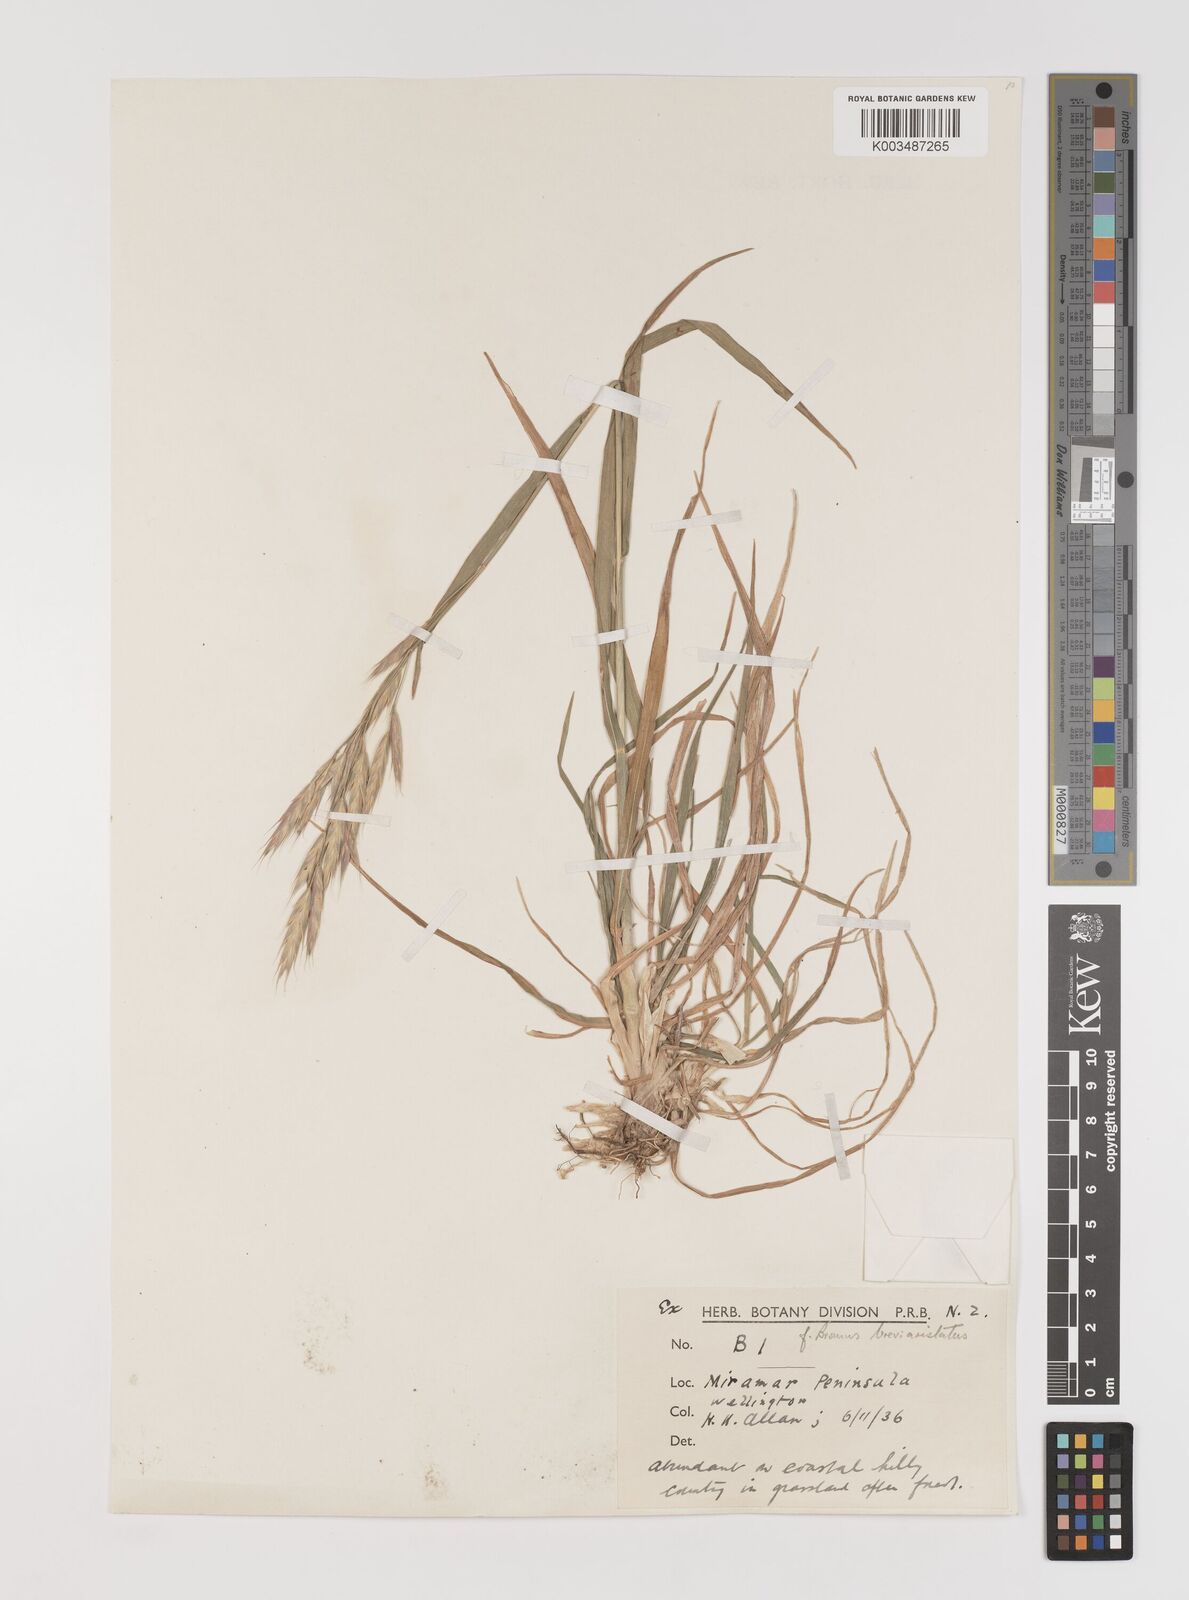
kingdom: Plantae
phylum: Tracheophyta
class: Liliopsida
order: Poales
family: Poaceae
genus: Bromus
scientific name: Bromus marginatus
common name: Western brome
